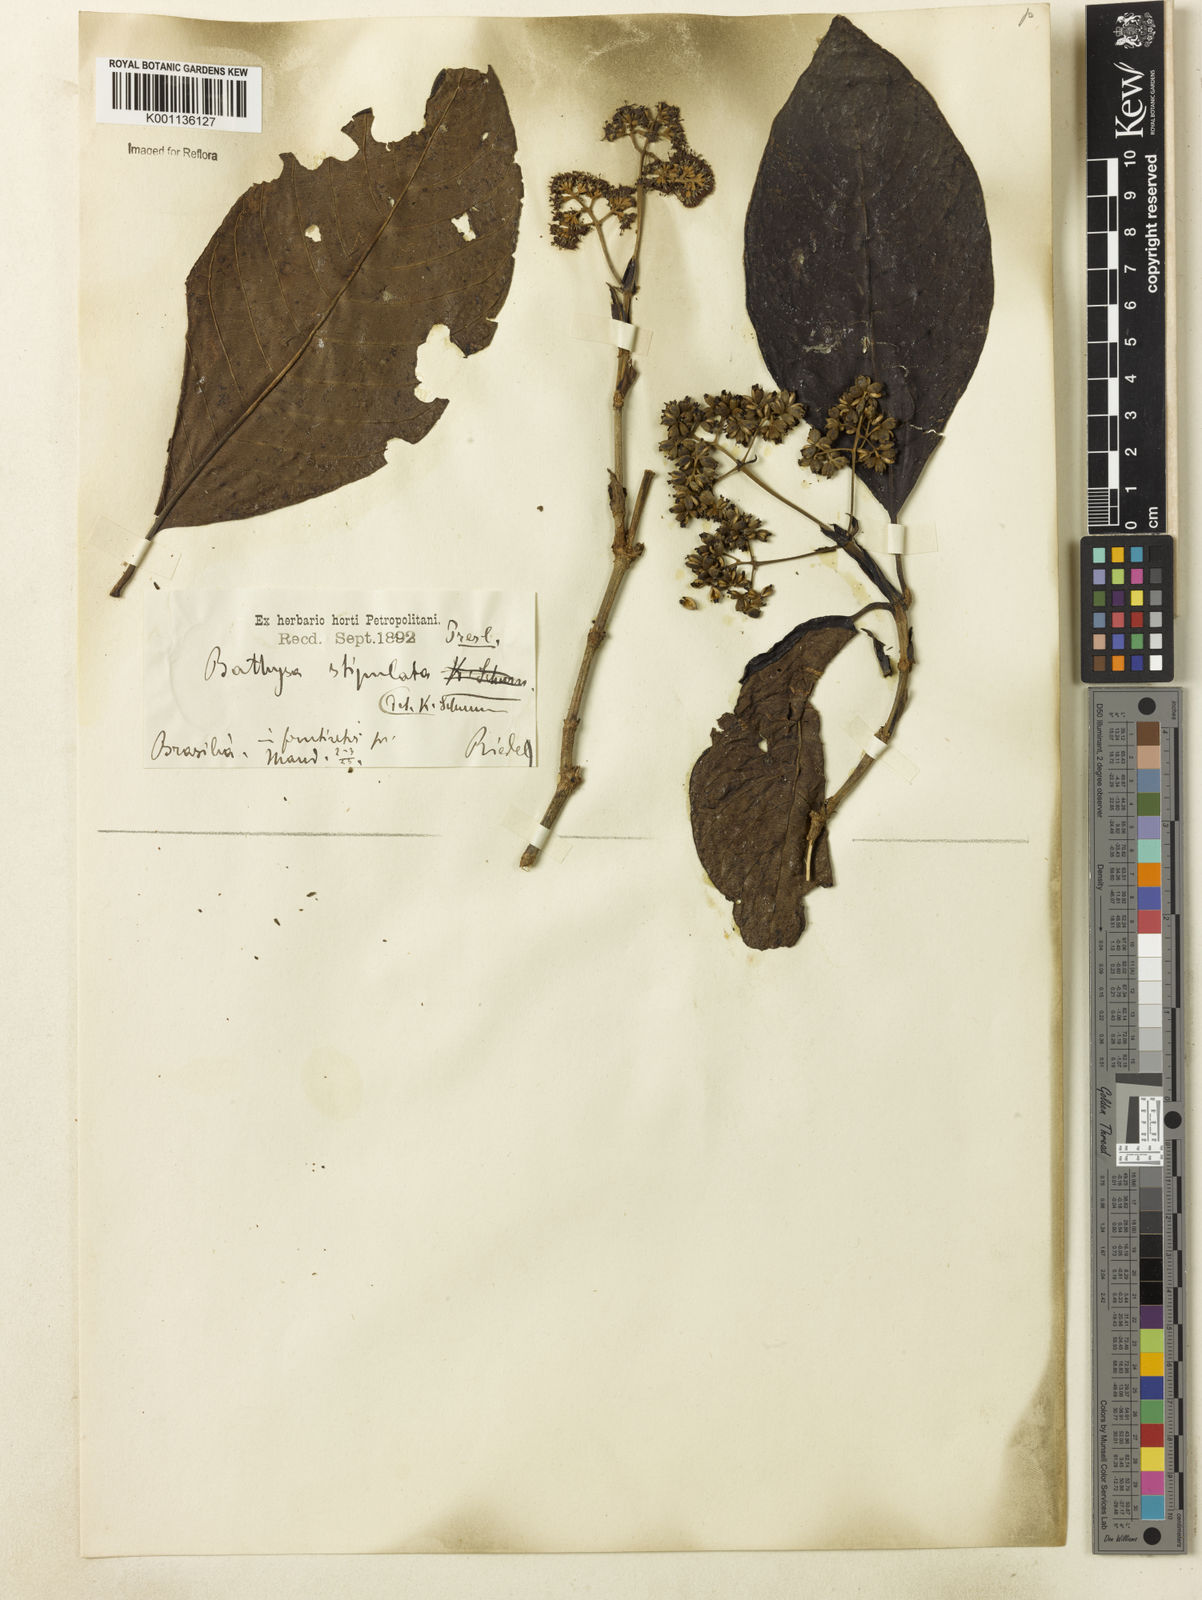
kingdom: Plantae
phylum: Tracheophyta
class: Magnoliopsida
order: Gentianales
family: Rubiaceae
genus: Bathysa
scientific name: Bathysa stipulata
